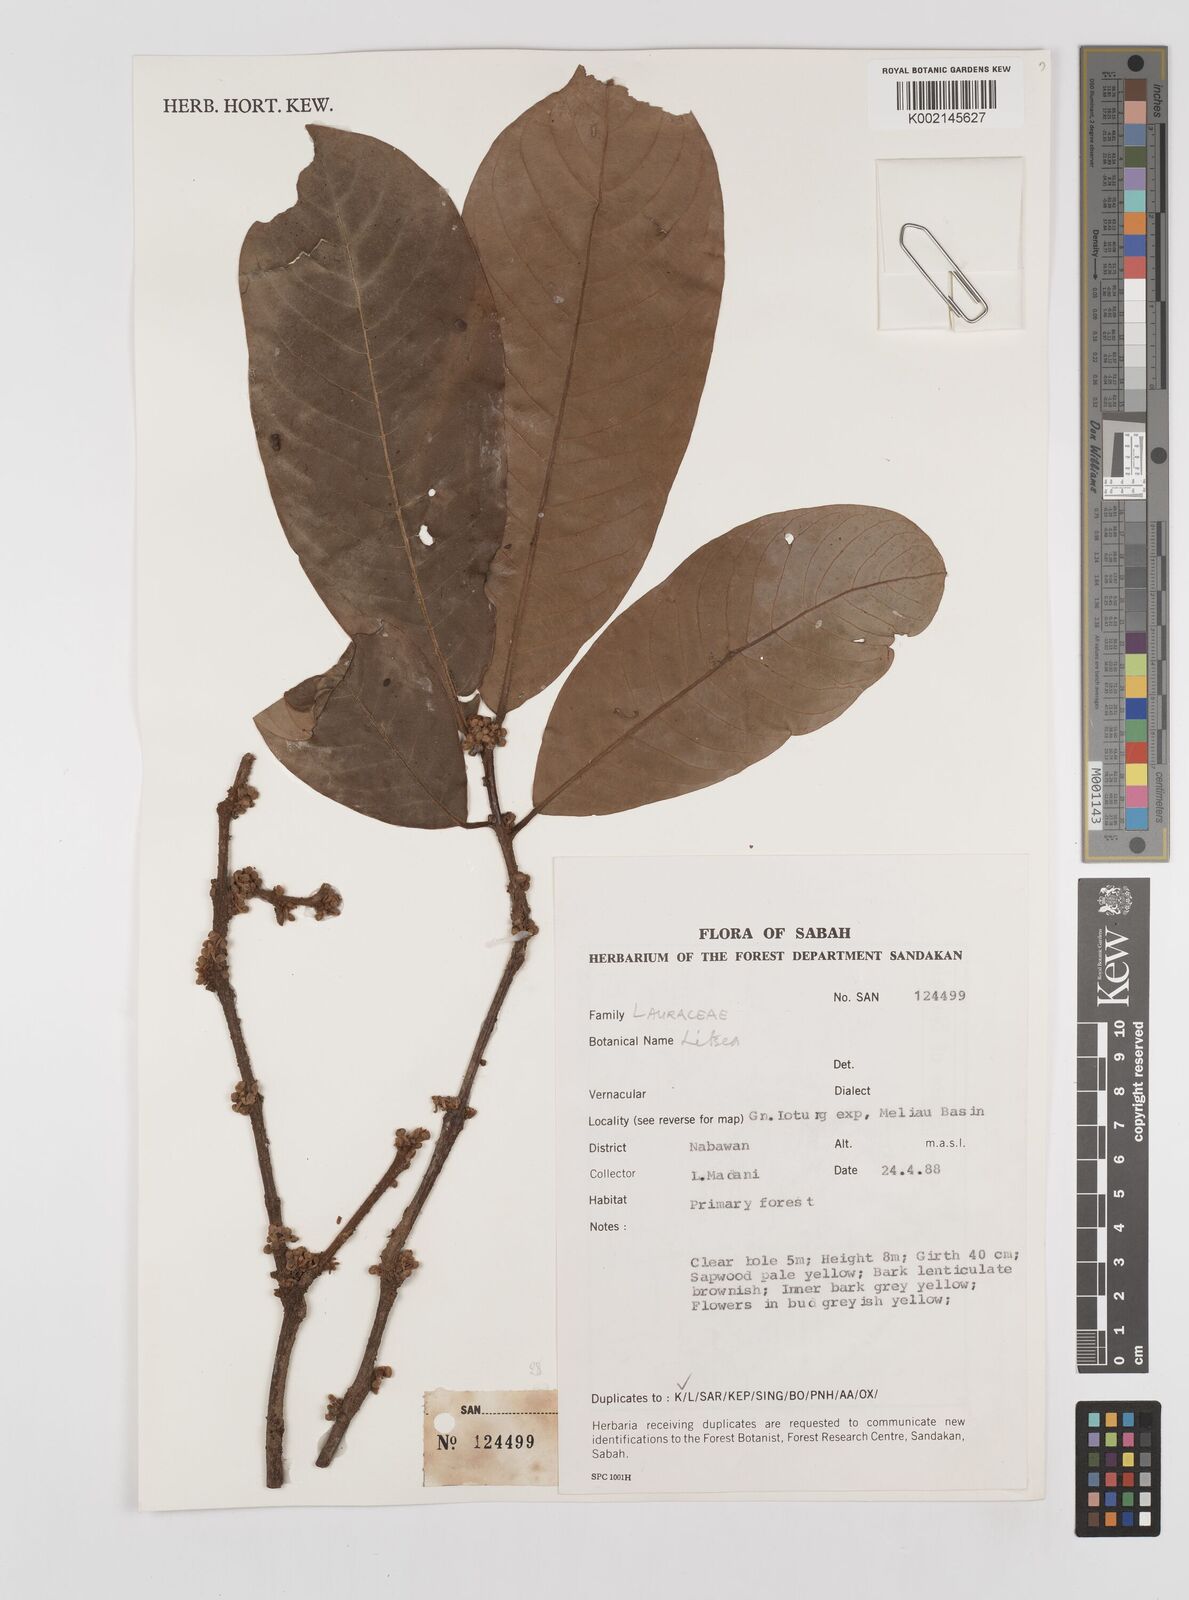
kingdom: Plantae
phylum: Tracheophyta
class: Magnoliopsida
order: Laurales
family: Lauraceae
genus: Litsea
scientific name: Litsea
